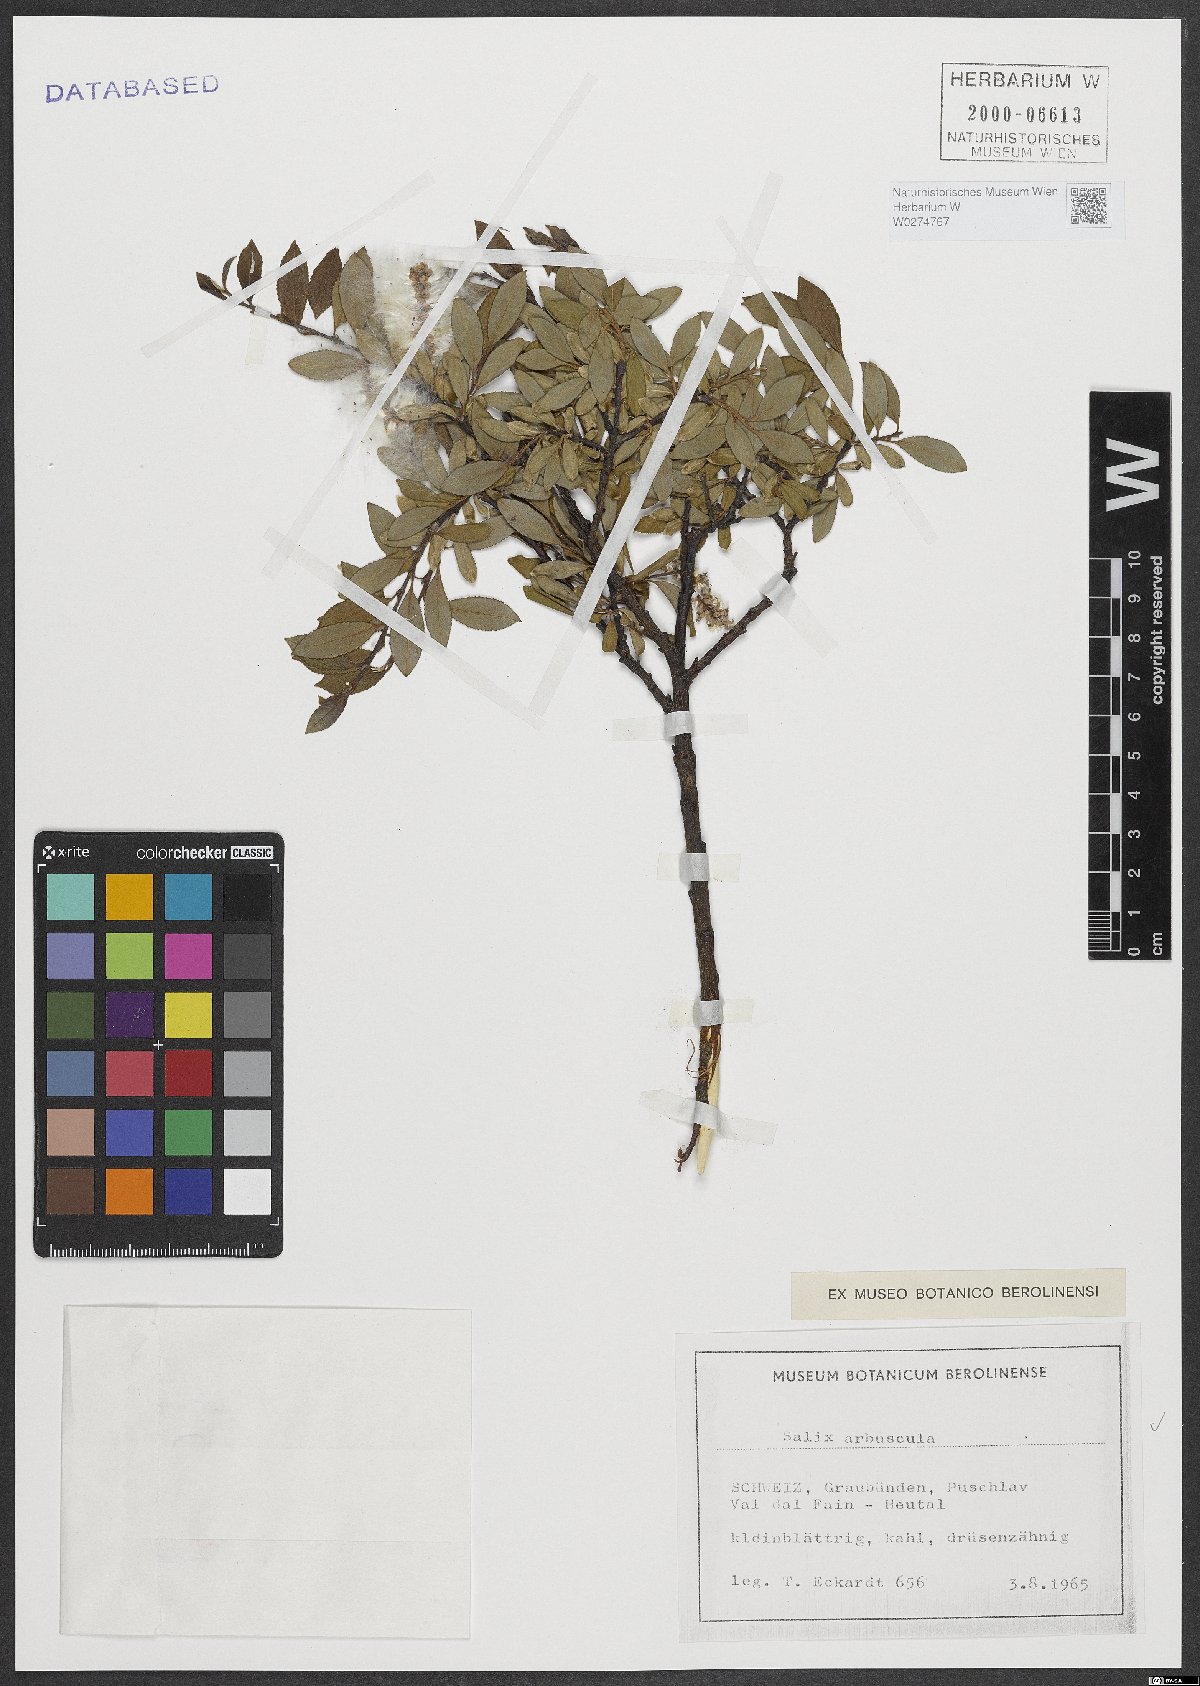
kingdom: Plantae
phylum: Tracheophyta
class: Magnoliopsida
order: Malpighiales
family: Salicaceae
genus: Salix
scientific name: Salix arbuscula
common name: Mountain willow
